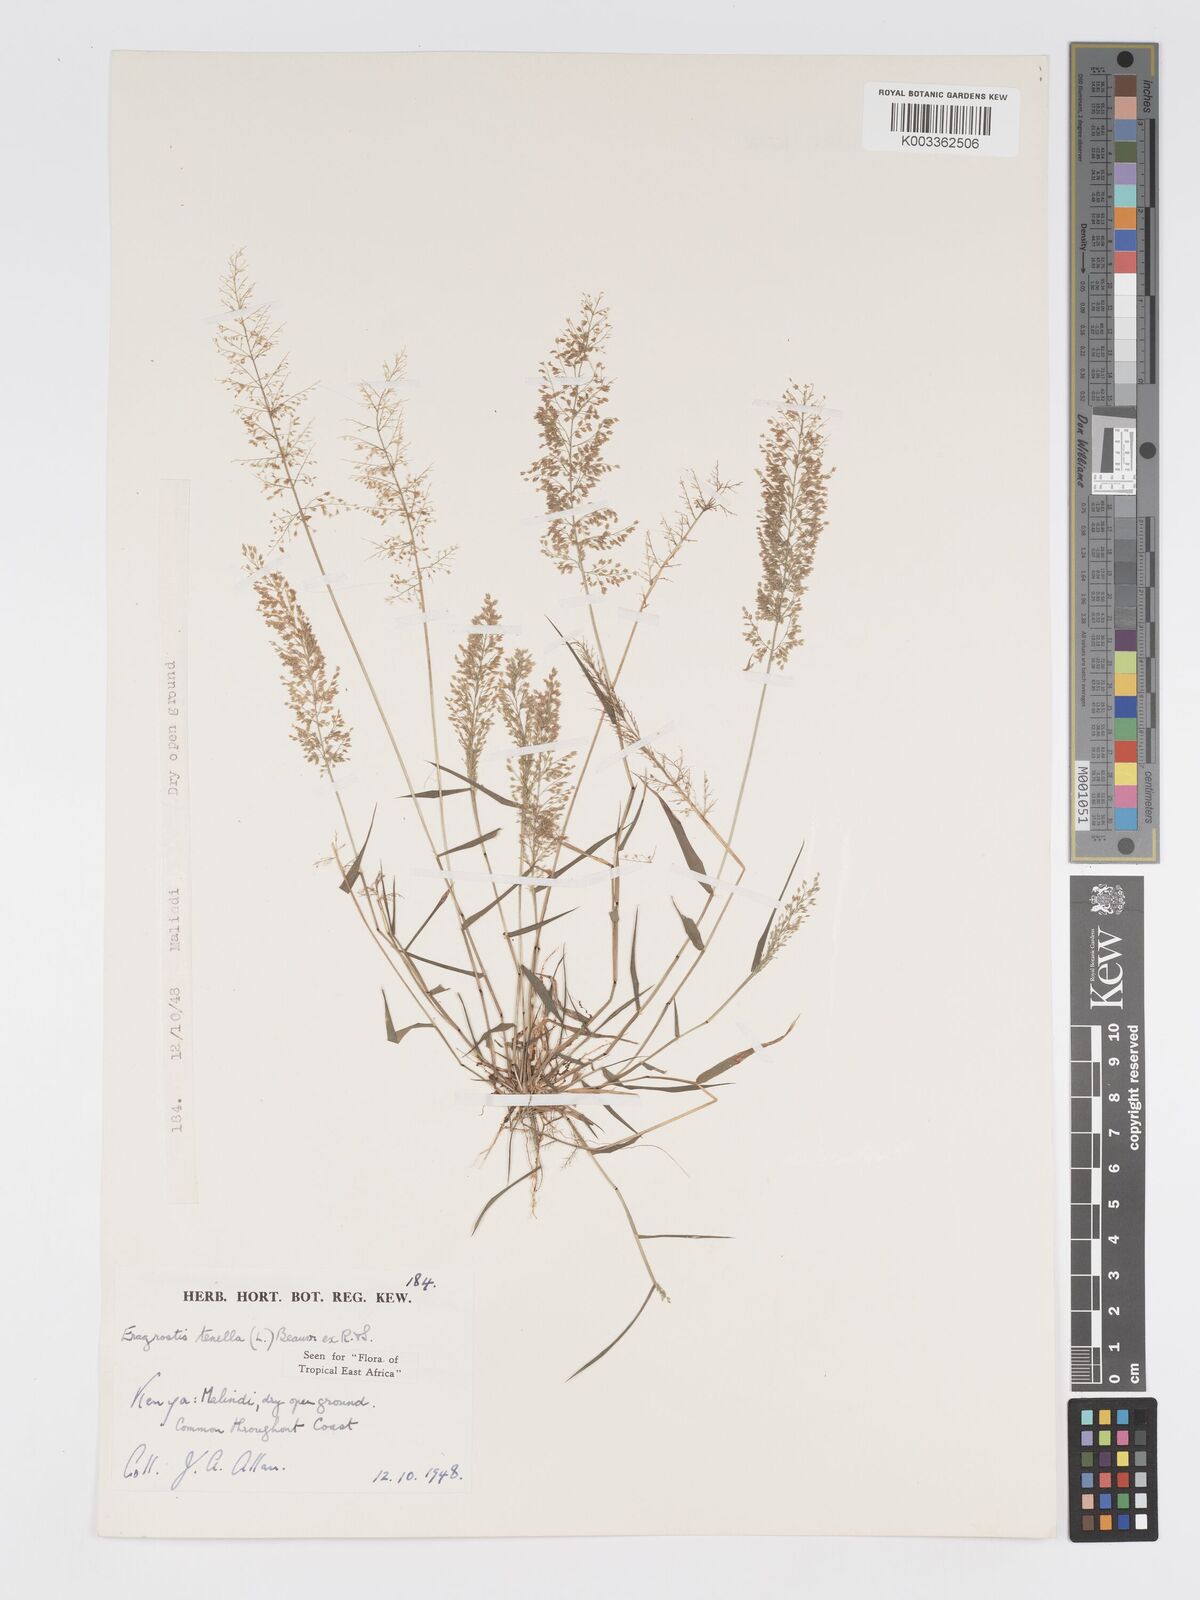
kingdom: Plantae
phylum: Tracheophyta
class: Liliopsida
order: Poales
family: Poaceae
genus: Eragrostis
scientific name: Eragrostis tenella
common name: Japanese lovegrass
